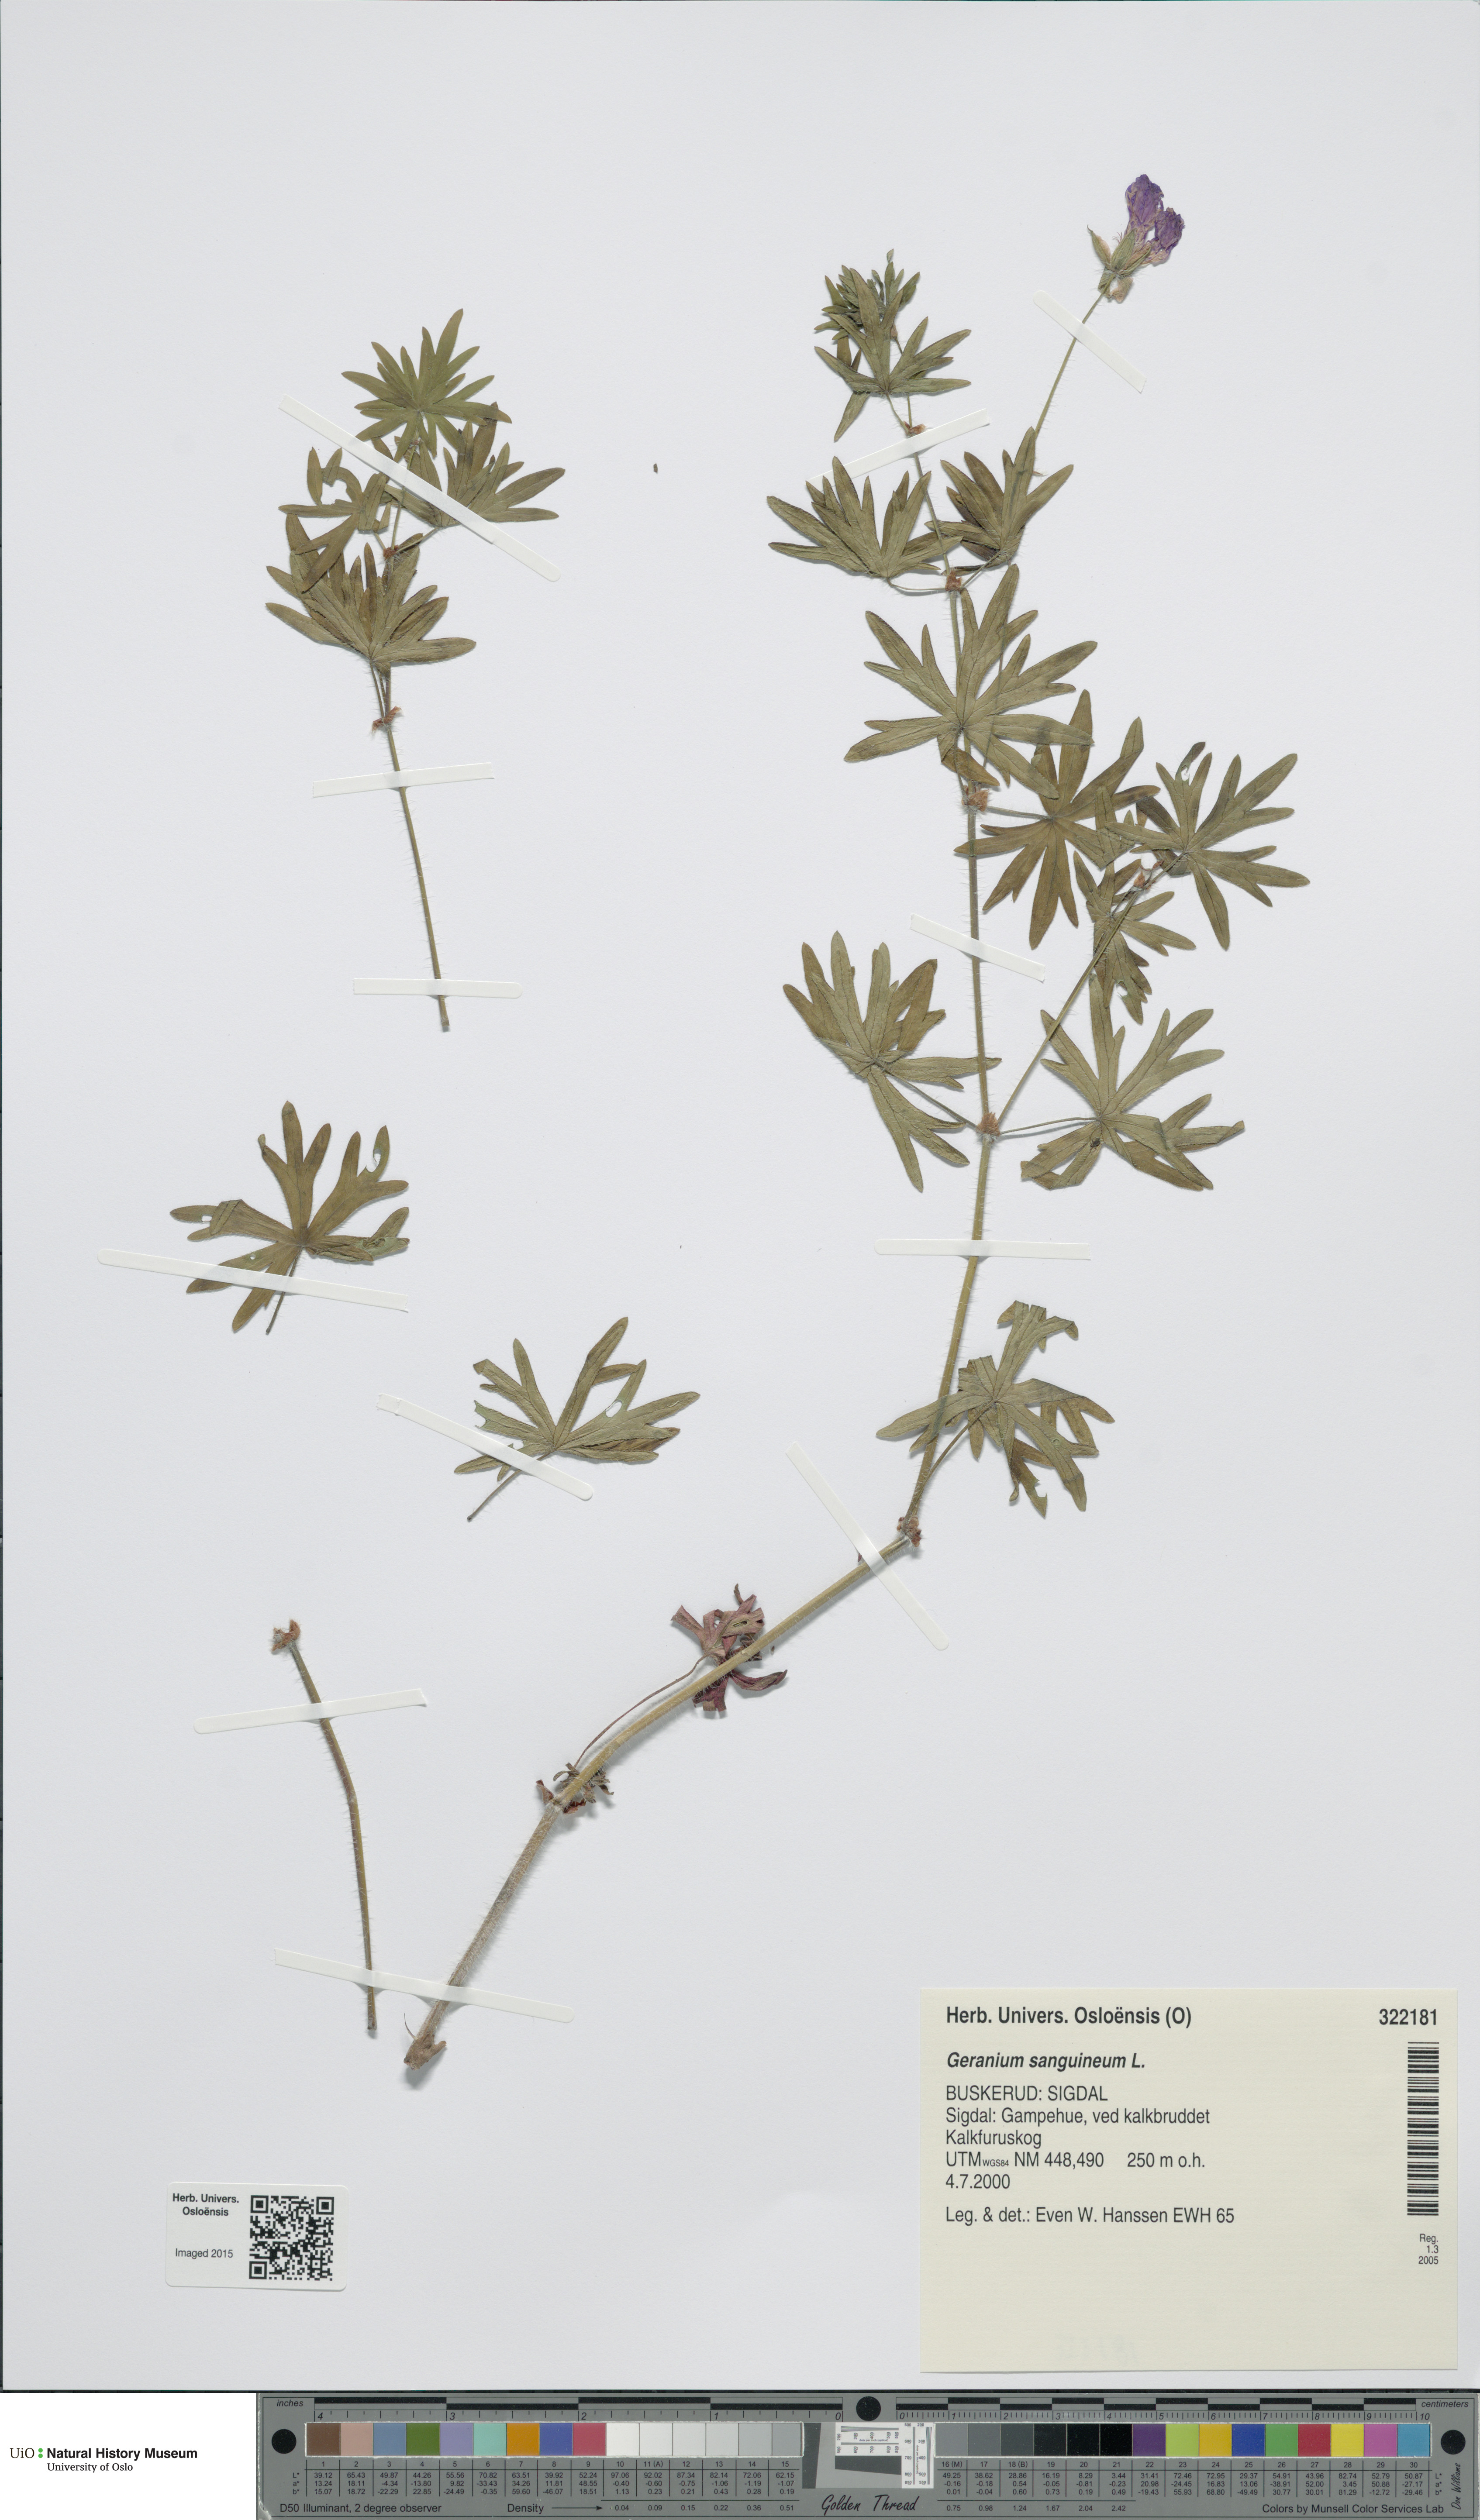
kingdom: Plantae
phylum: Tracheophyta
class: Magnoliopsida
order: Geraniales
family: Geraniaceae
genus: Geranium
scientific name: Geranium sanguineum
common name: Bloody crane's-bill
